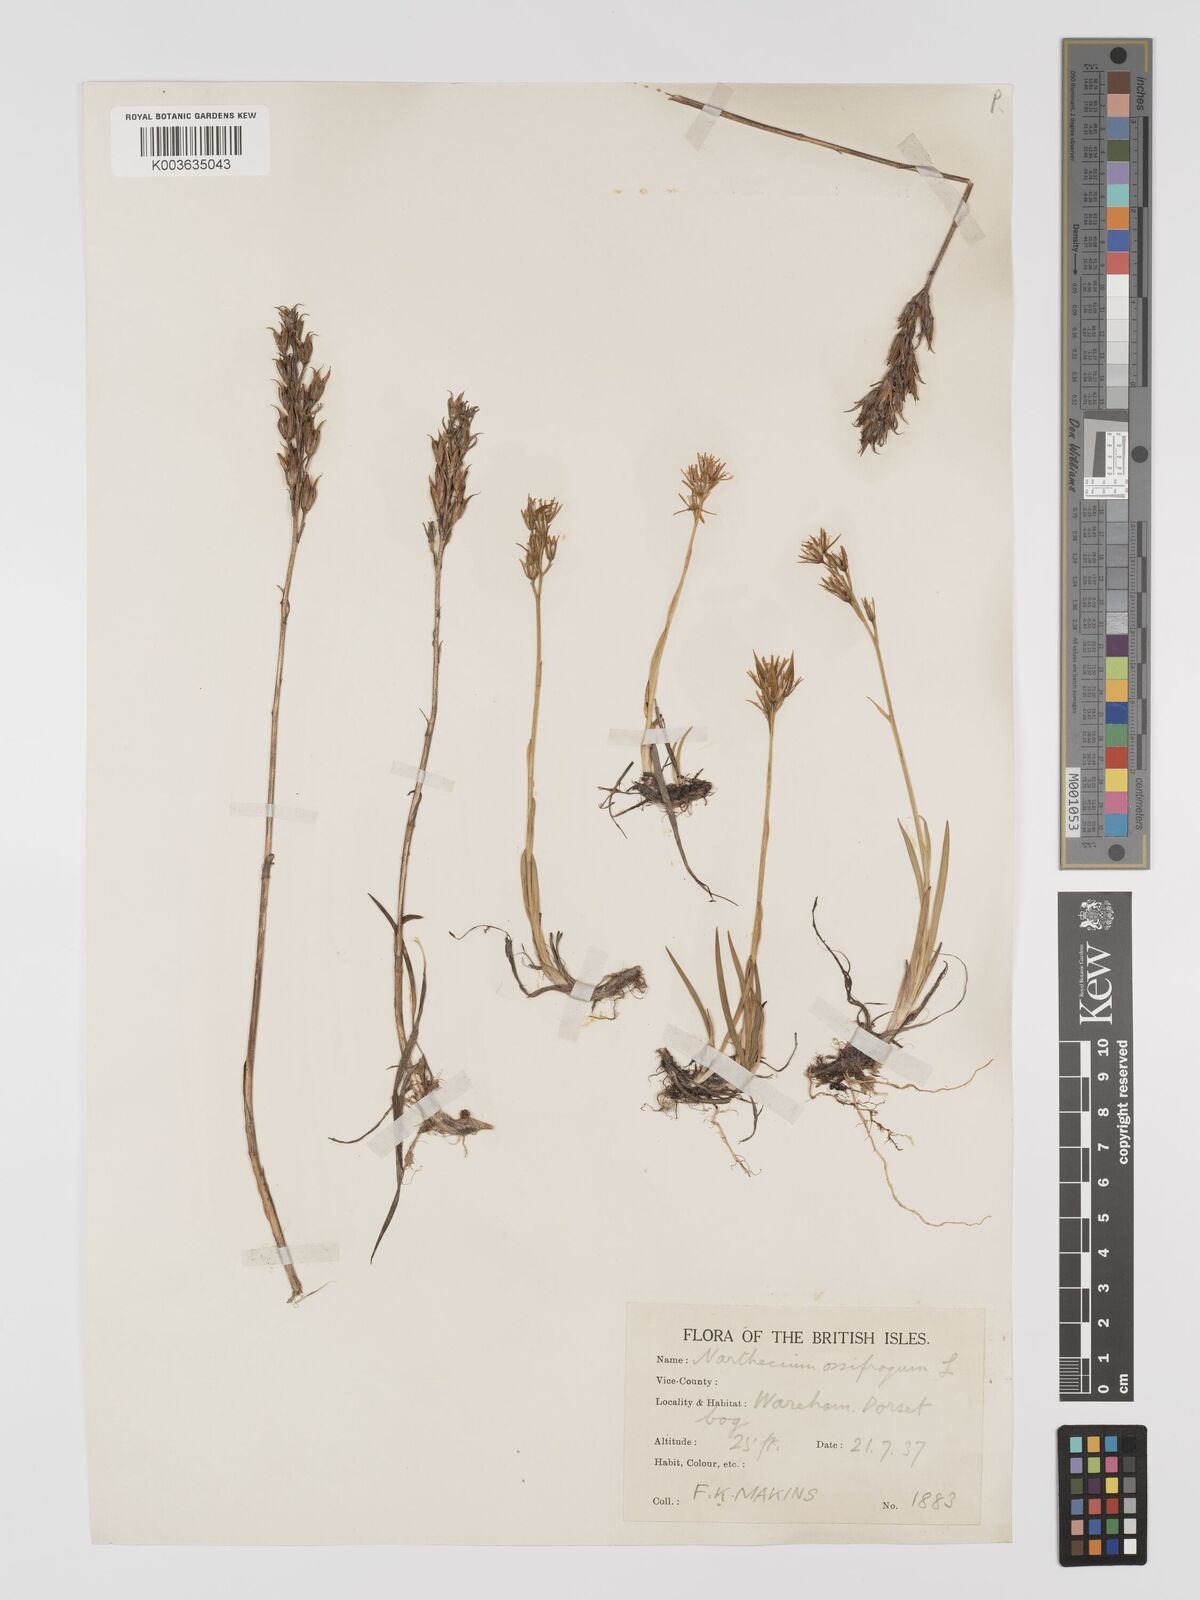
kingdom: Plantae
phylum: Tracheophyta
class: Liliopsida
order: Dioscoreales
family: Nartheciaceae
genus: Narthecium
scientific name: Narthecium
